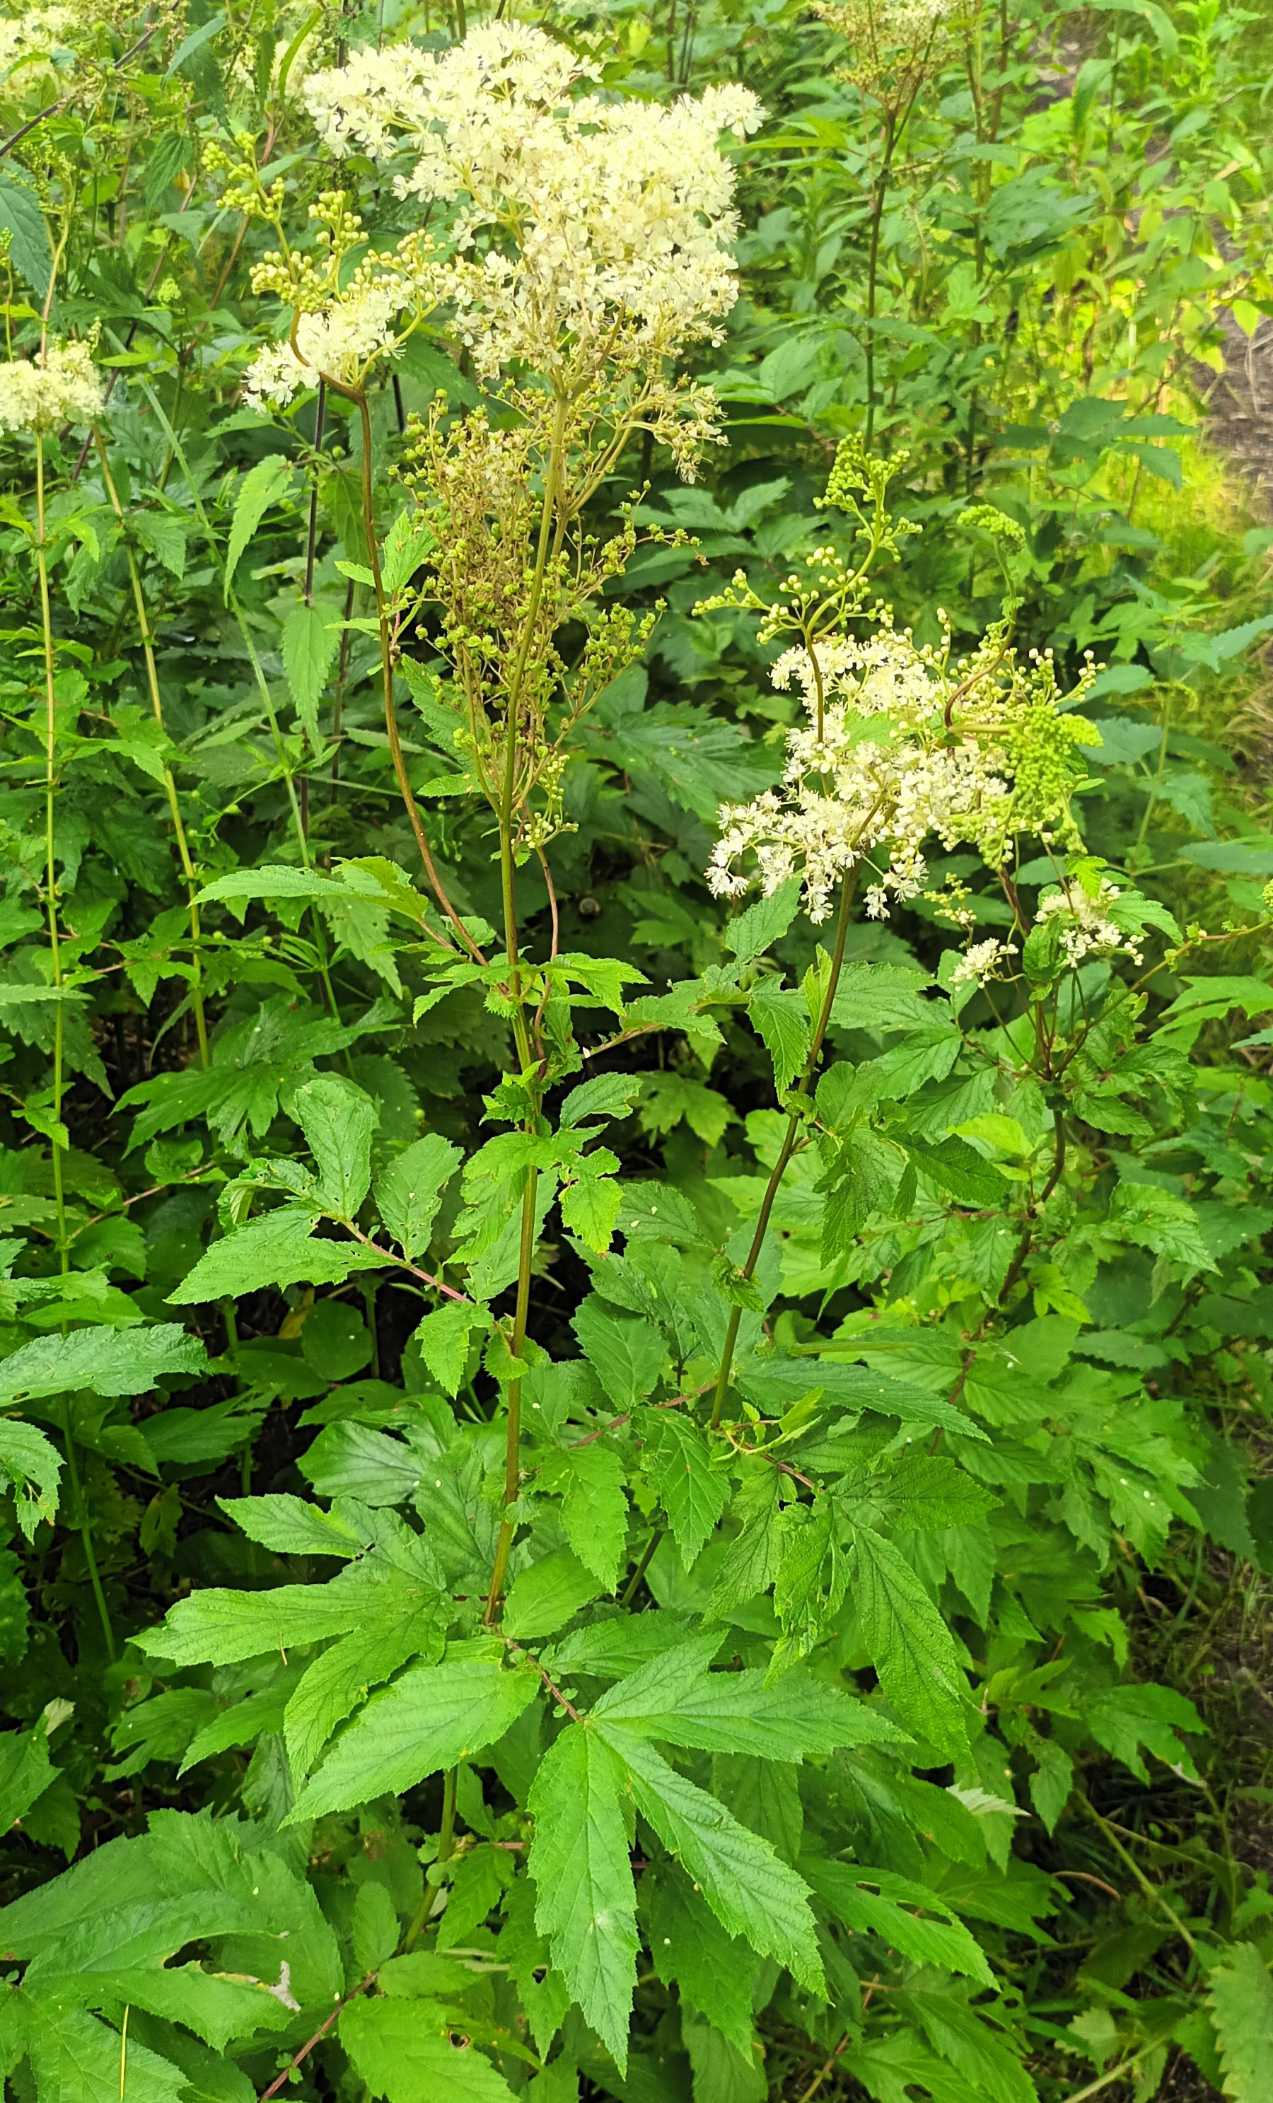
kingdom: Plantae
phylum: Tracheophyta
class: Magnoliopsida
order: Rosales
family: Rosaceae
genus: Filipendula
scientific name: Filipendula ulmaria
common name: Almindelig mjødurt
